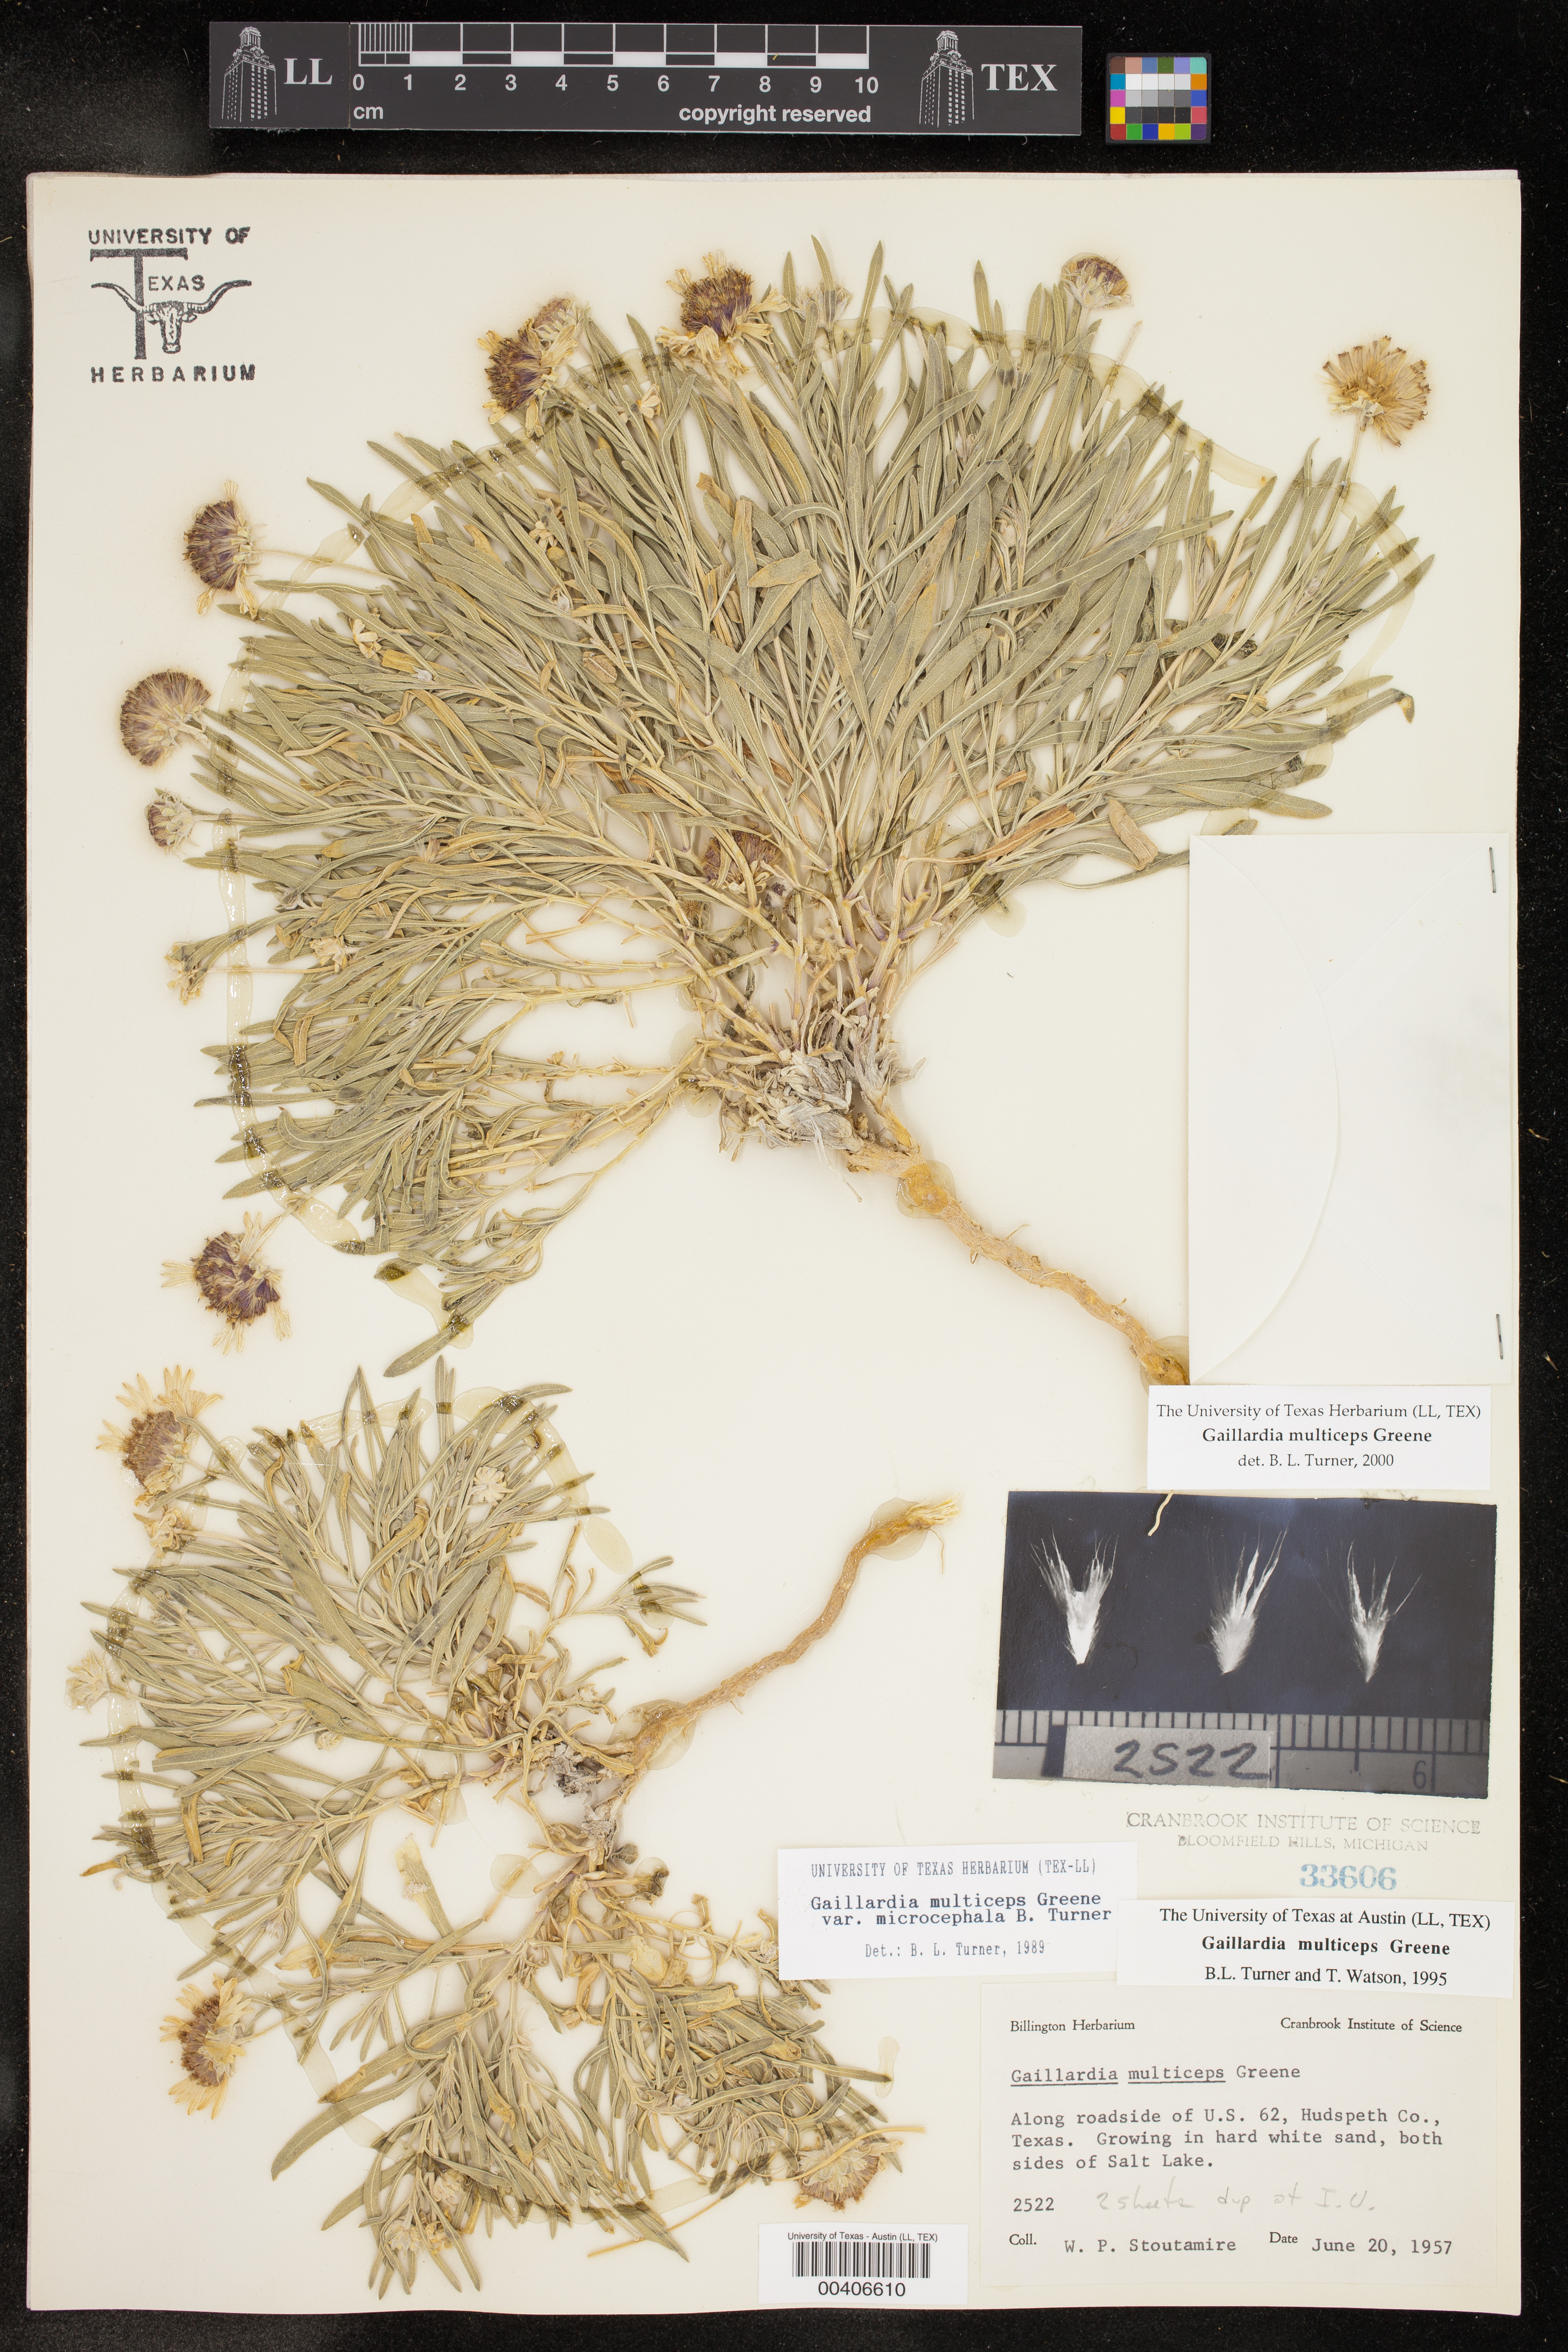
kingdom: Plantae
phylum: Tracheophyta
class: Magnoliopsida
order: Asterales
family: Asteraceae
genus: Gaillardia
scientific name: Gaillardia multiceps
